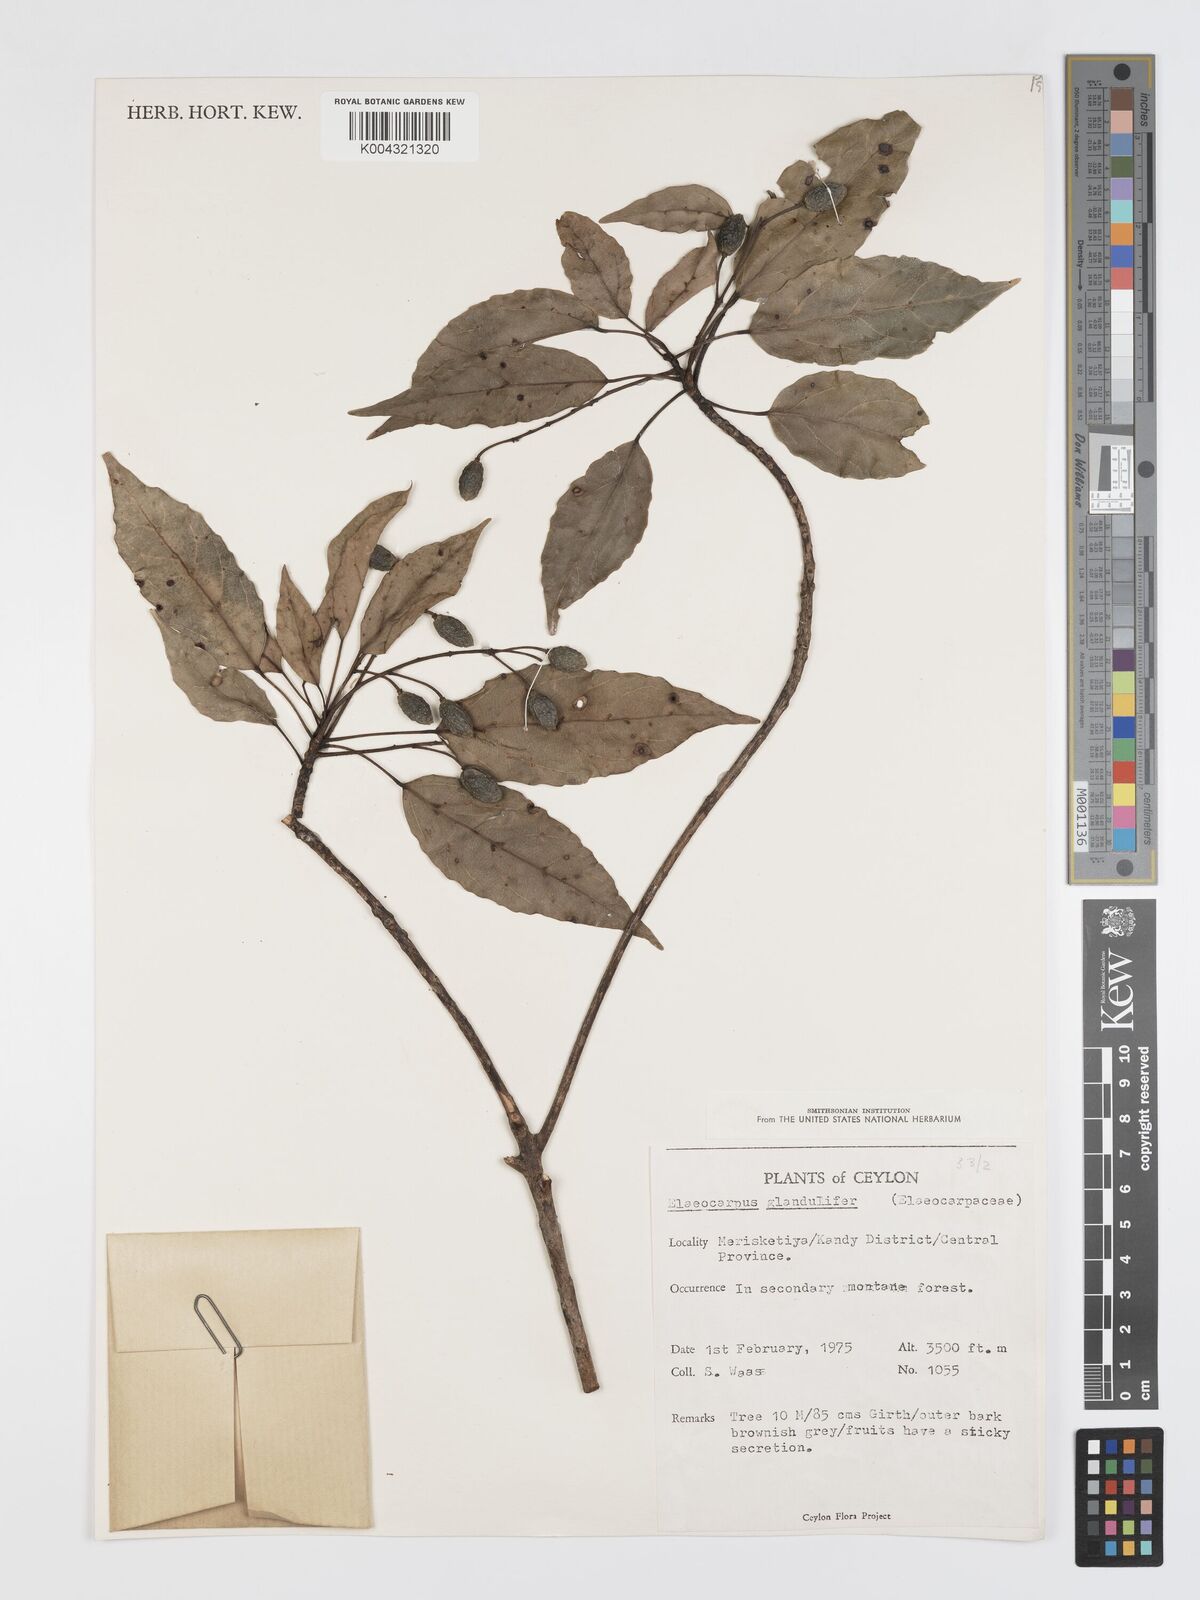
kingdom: Plantae
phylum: Tracheophyta
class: Magnoliopsida
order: Oxalidales
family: Elaeocarpaceae
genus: Elaeocarpus
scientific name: Elaeocarpus glandulifer
